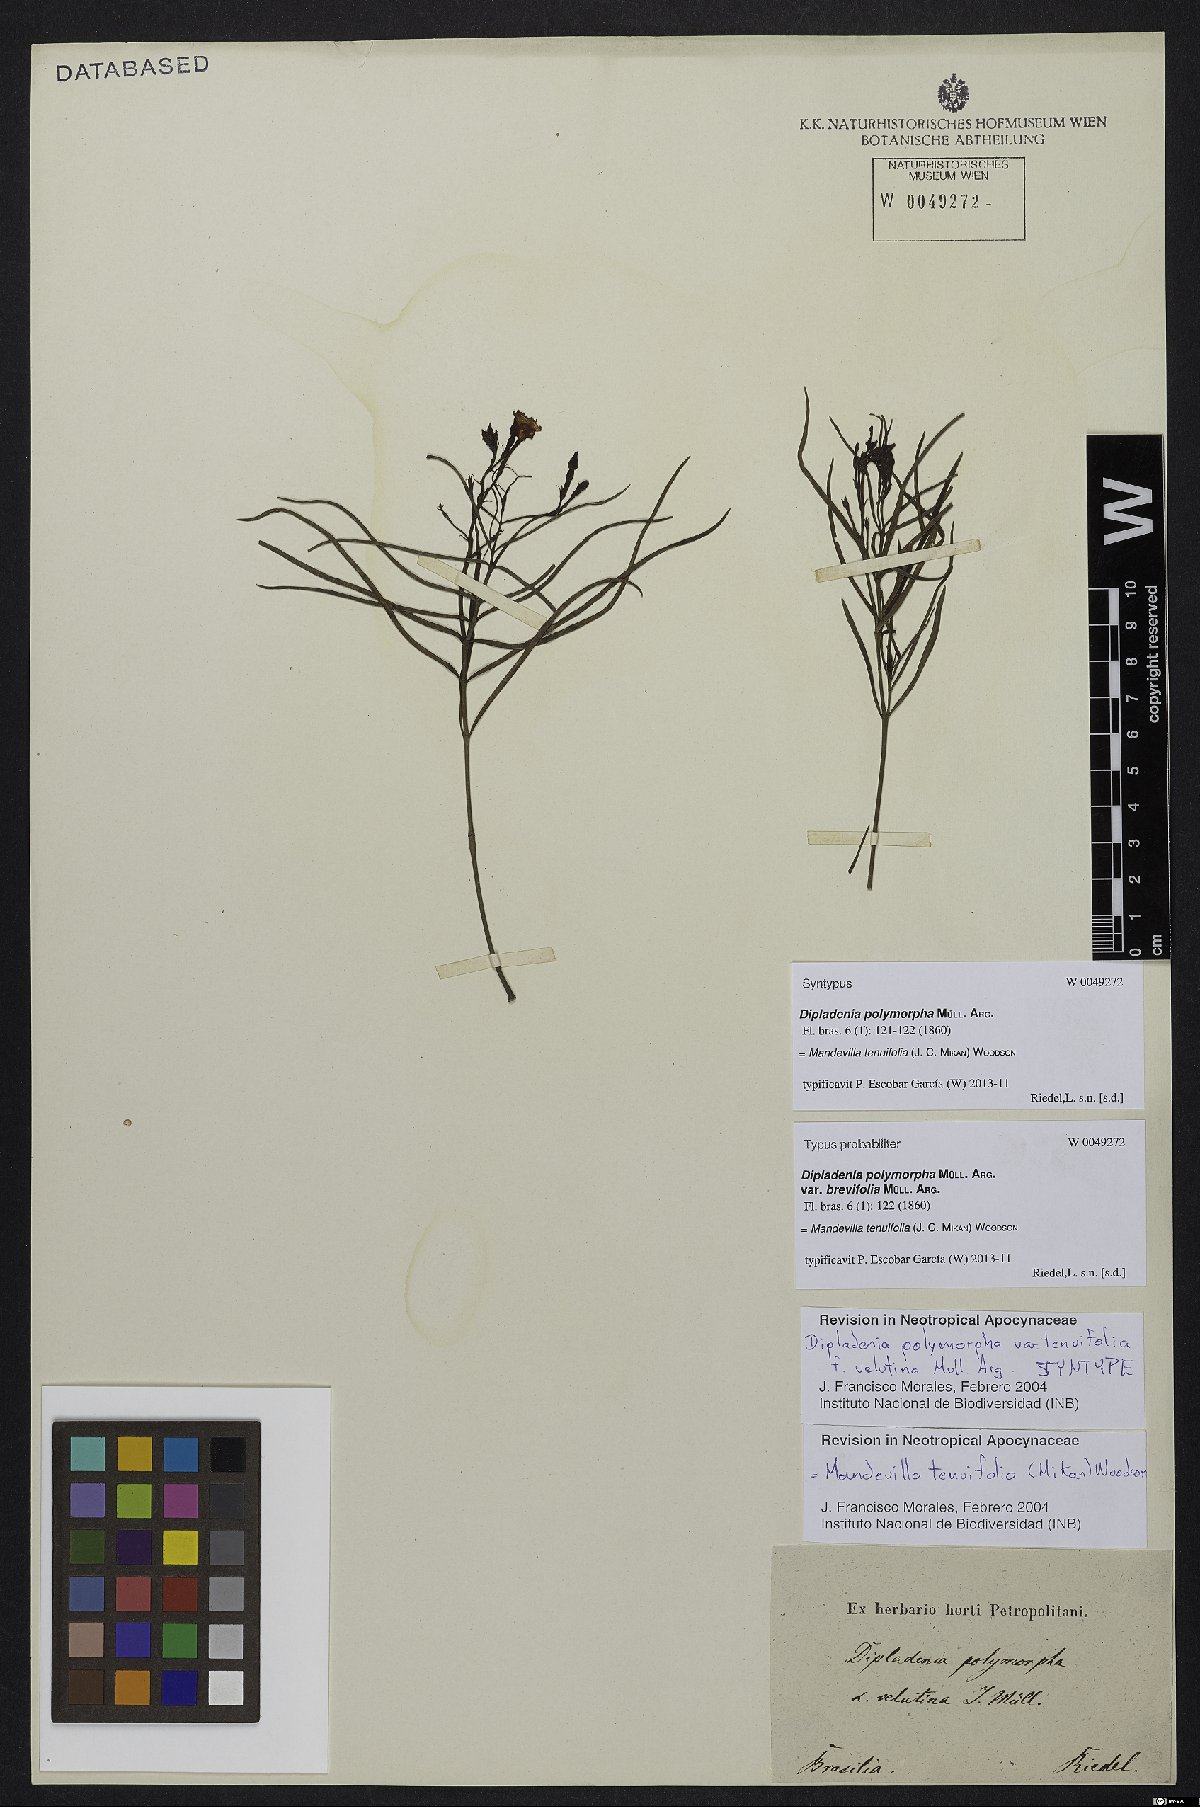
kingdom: Plantae
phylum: Tracheophyta
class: Magnoliopsida
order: Gentianales
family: Apocynaceae
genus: Mandevilla
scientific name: Mandevilla tenuifolia
